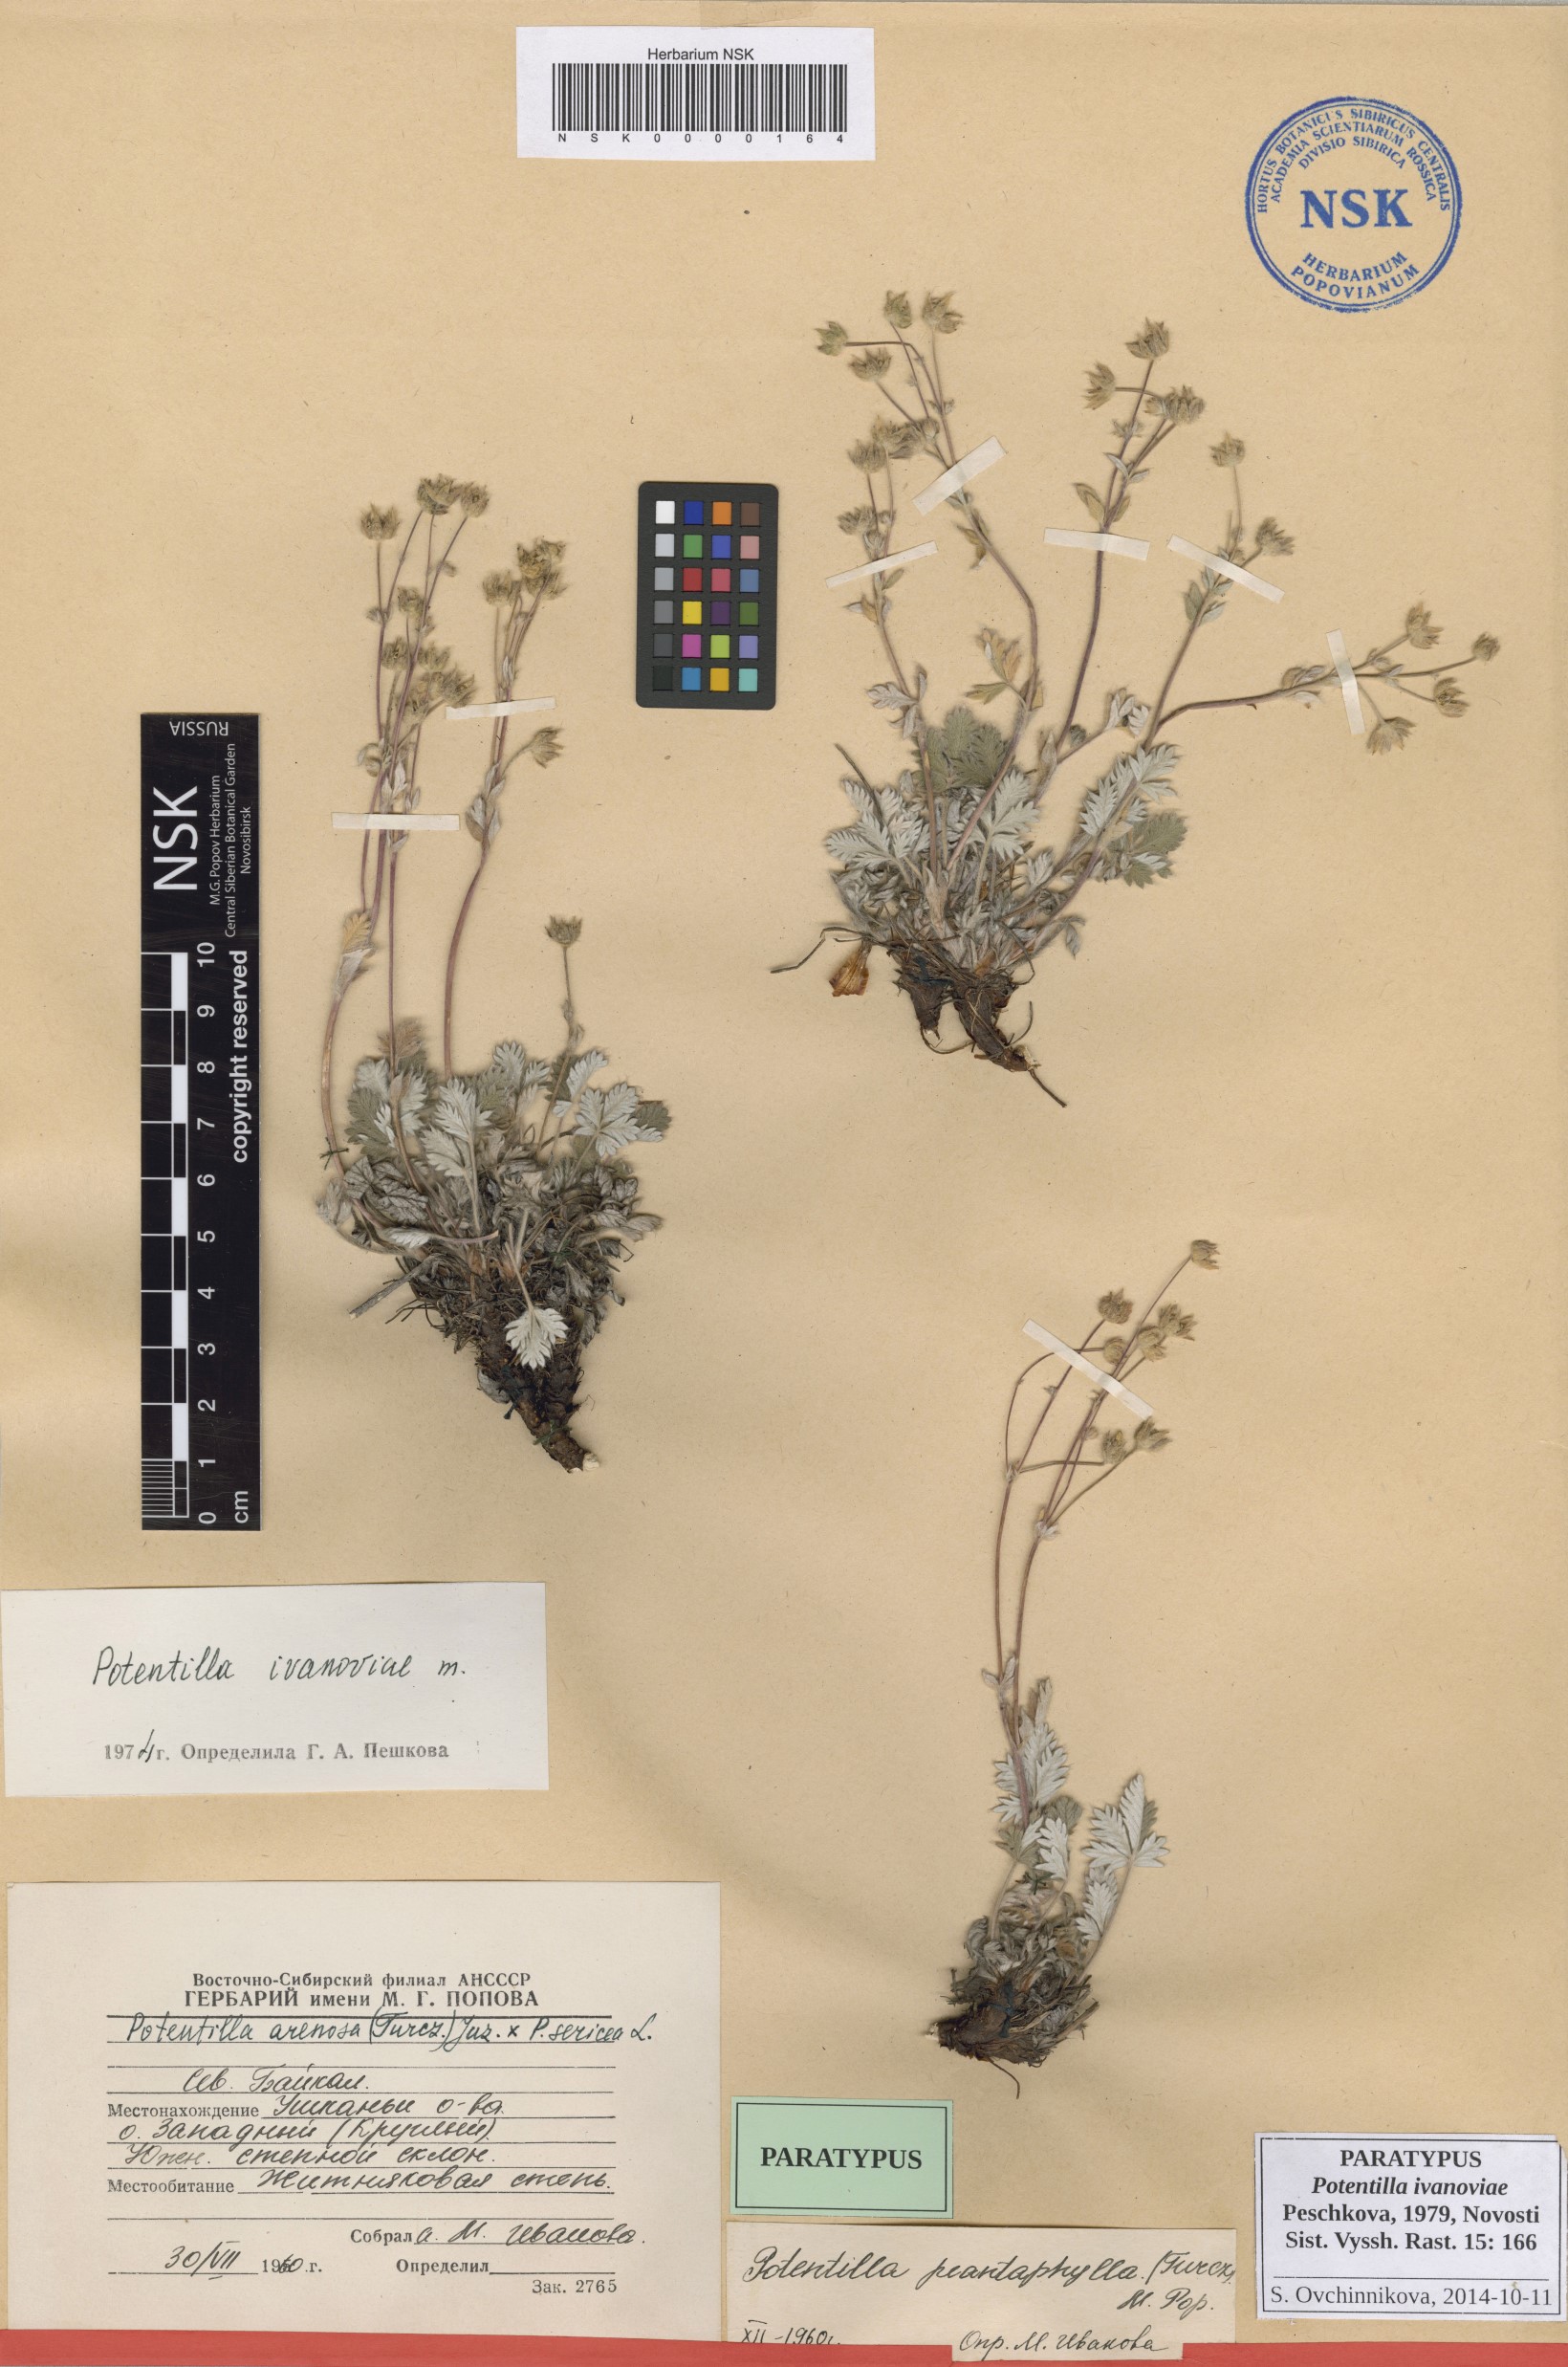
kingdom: Plantae
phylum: Tracheophyta
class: Magnoliopsida
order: Rosales
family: Rosaceae
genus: Potentilla
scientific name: Potentilla ivanoviae
